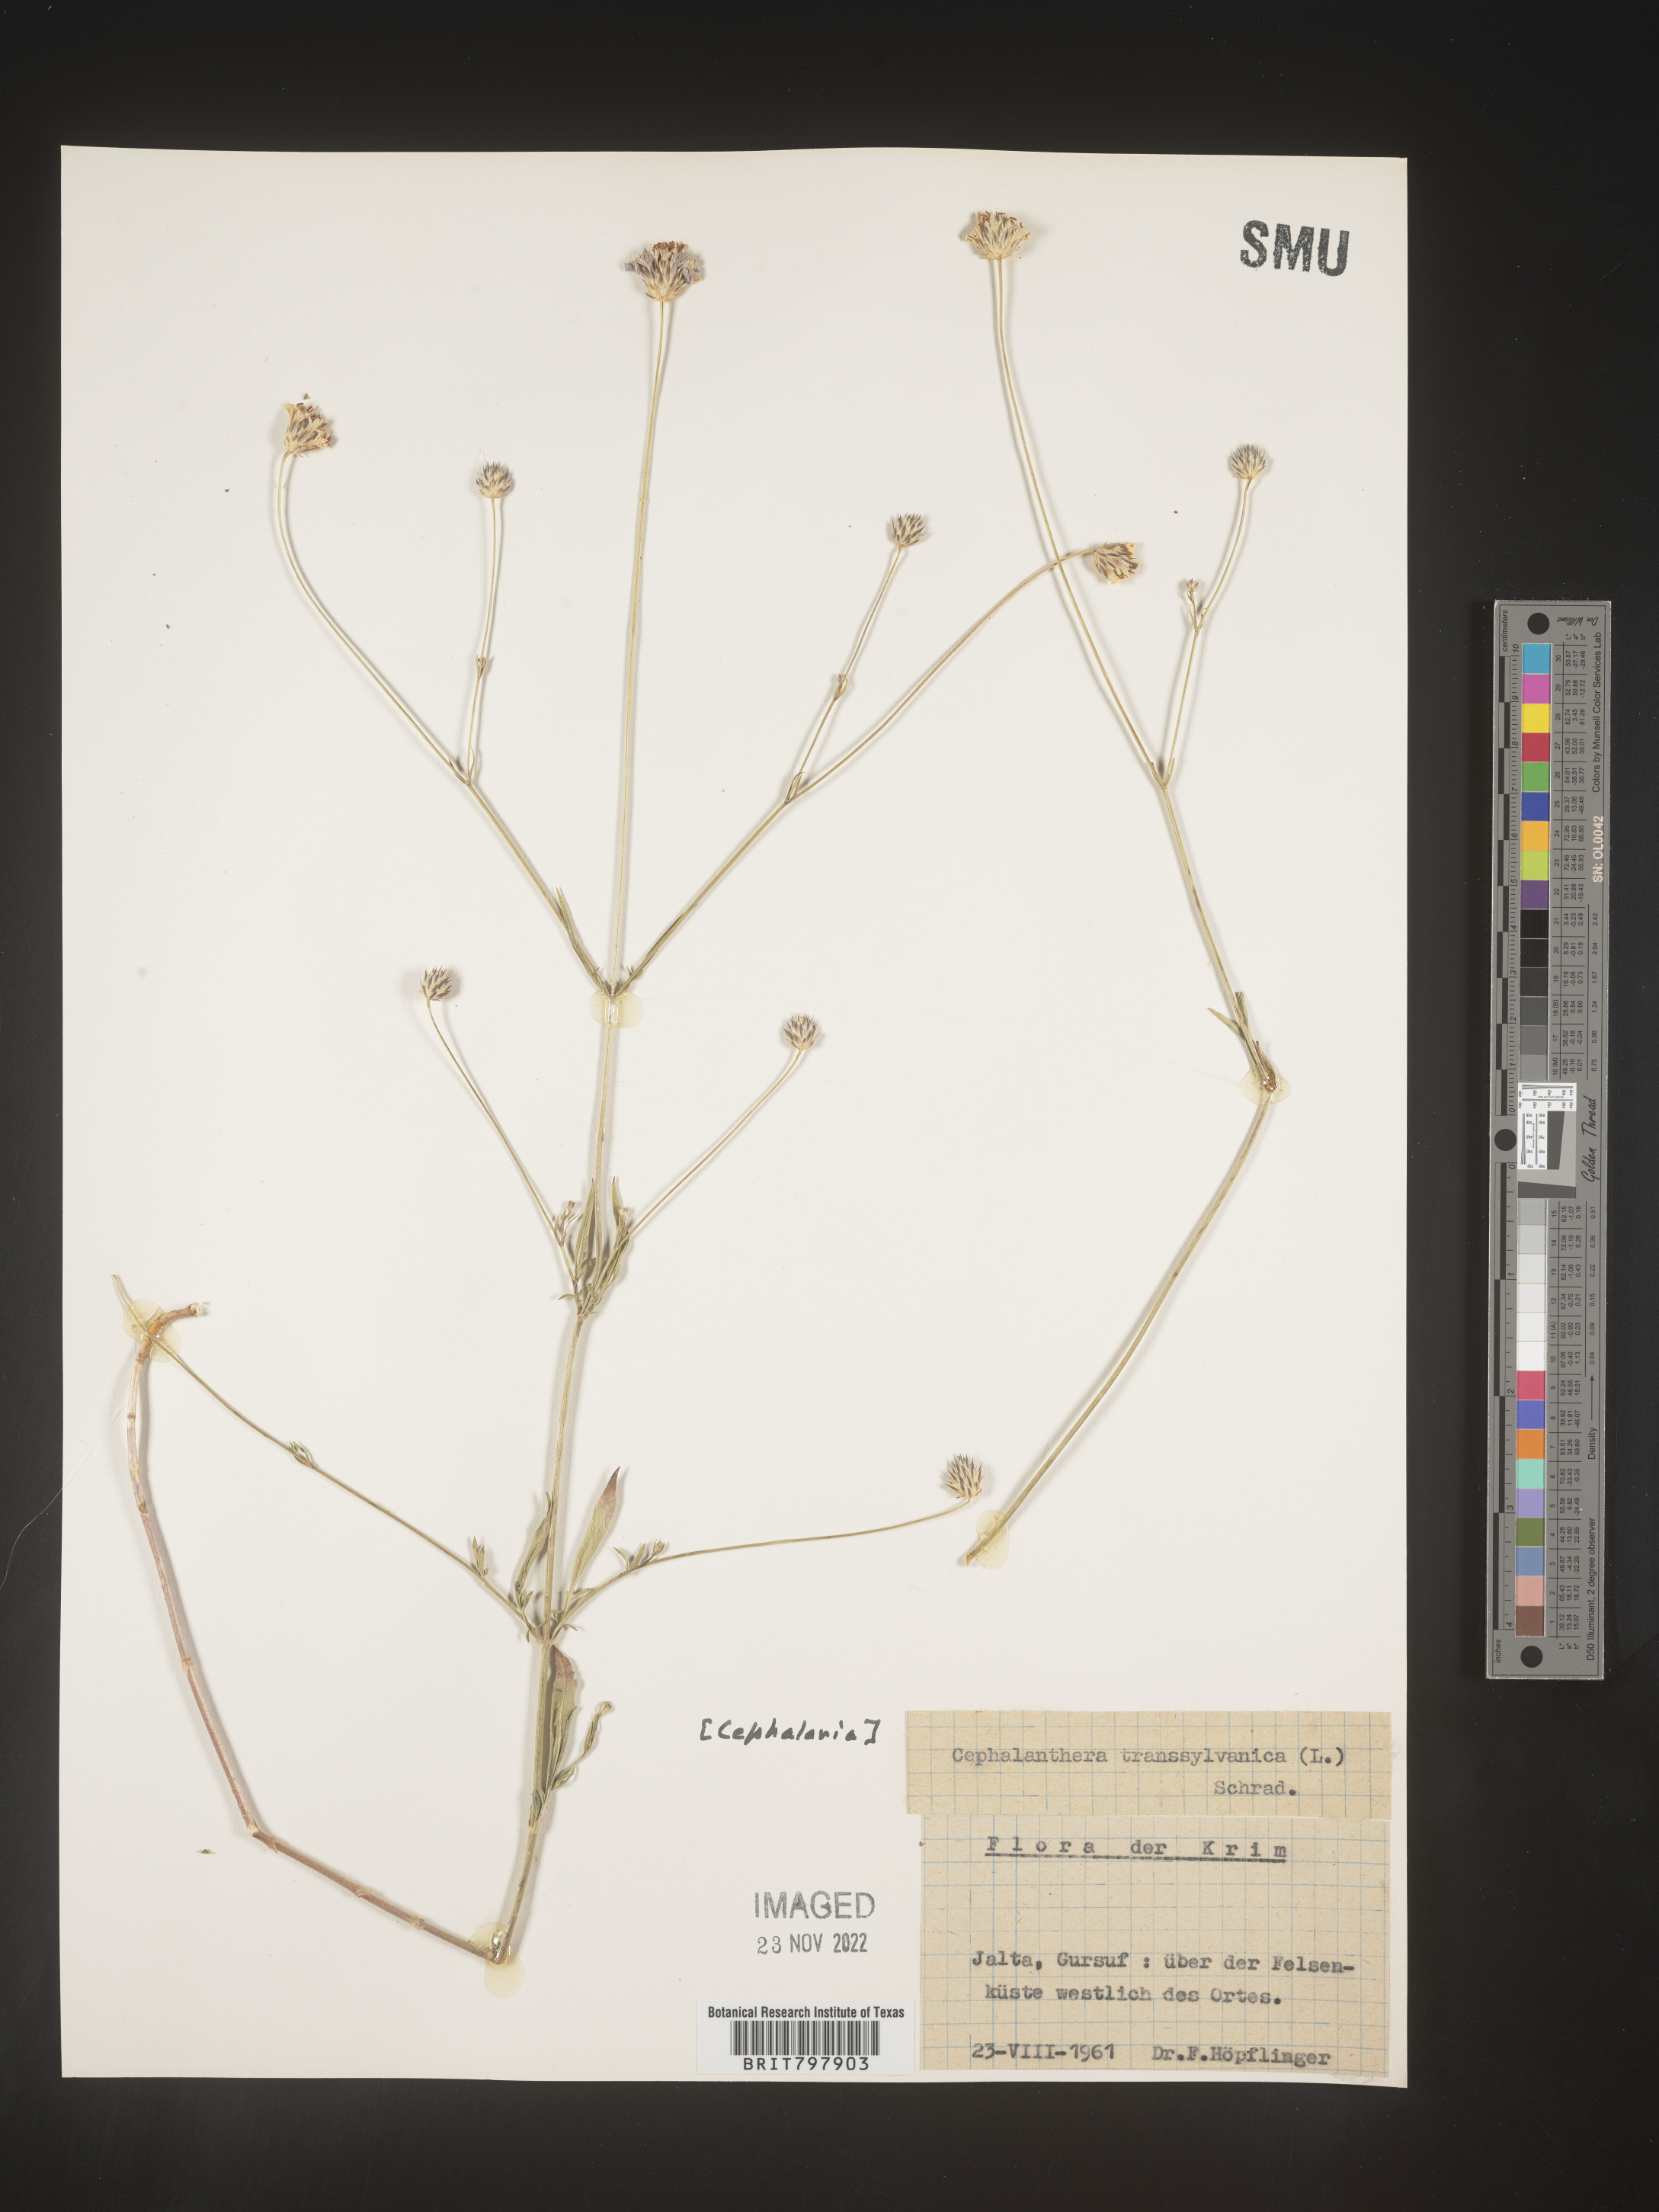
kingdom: Plantae
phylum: Tracheophyta
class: Magnoliopsida
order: Dipsacales
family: Caprifoliaceae
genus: Cephalaria
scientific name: Cephalaria
